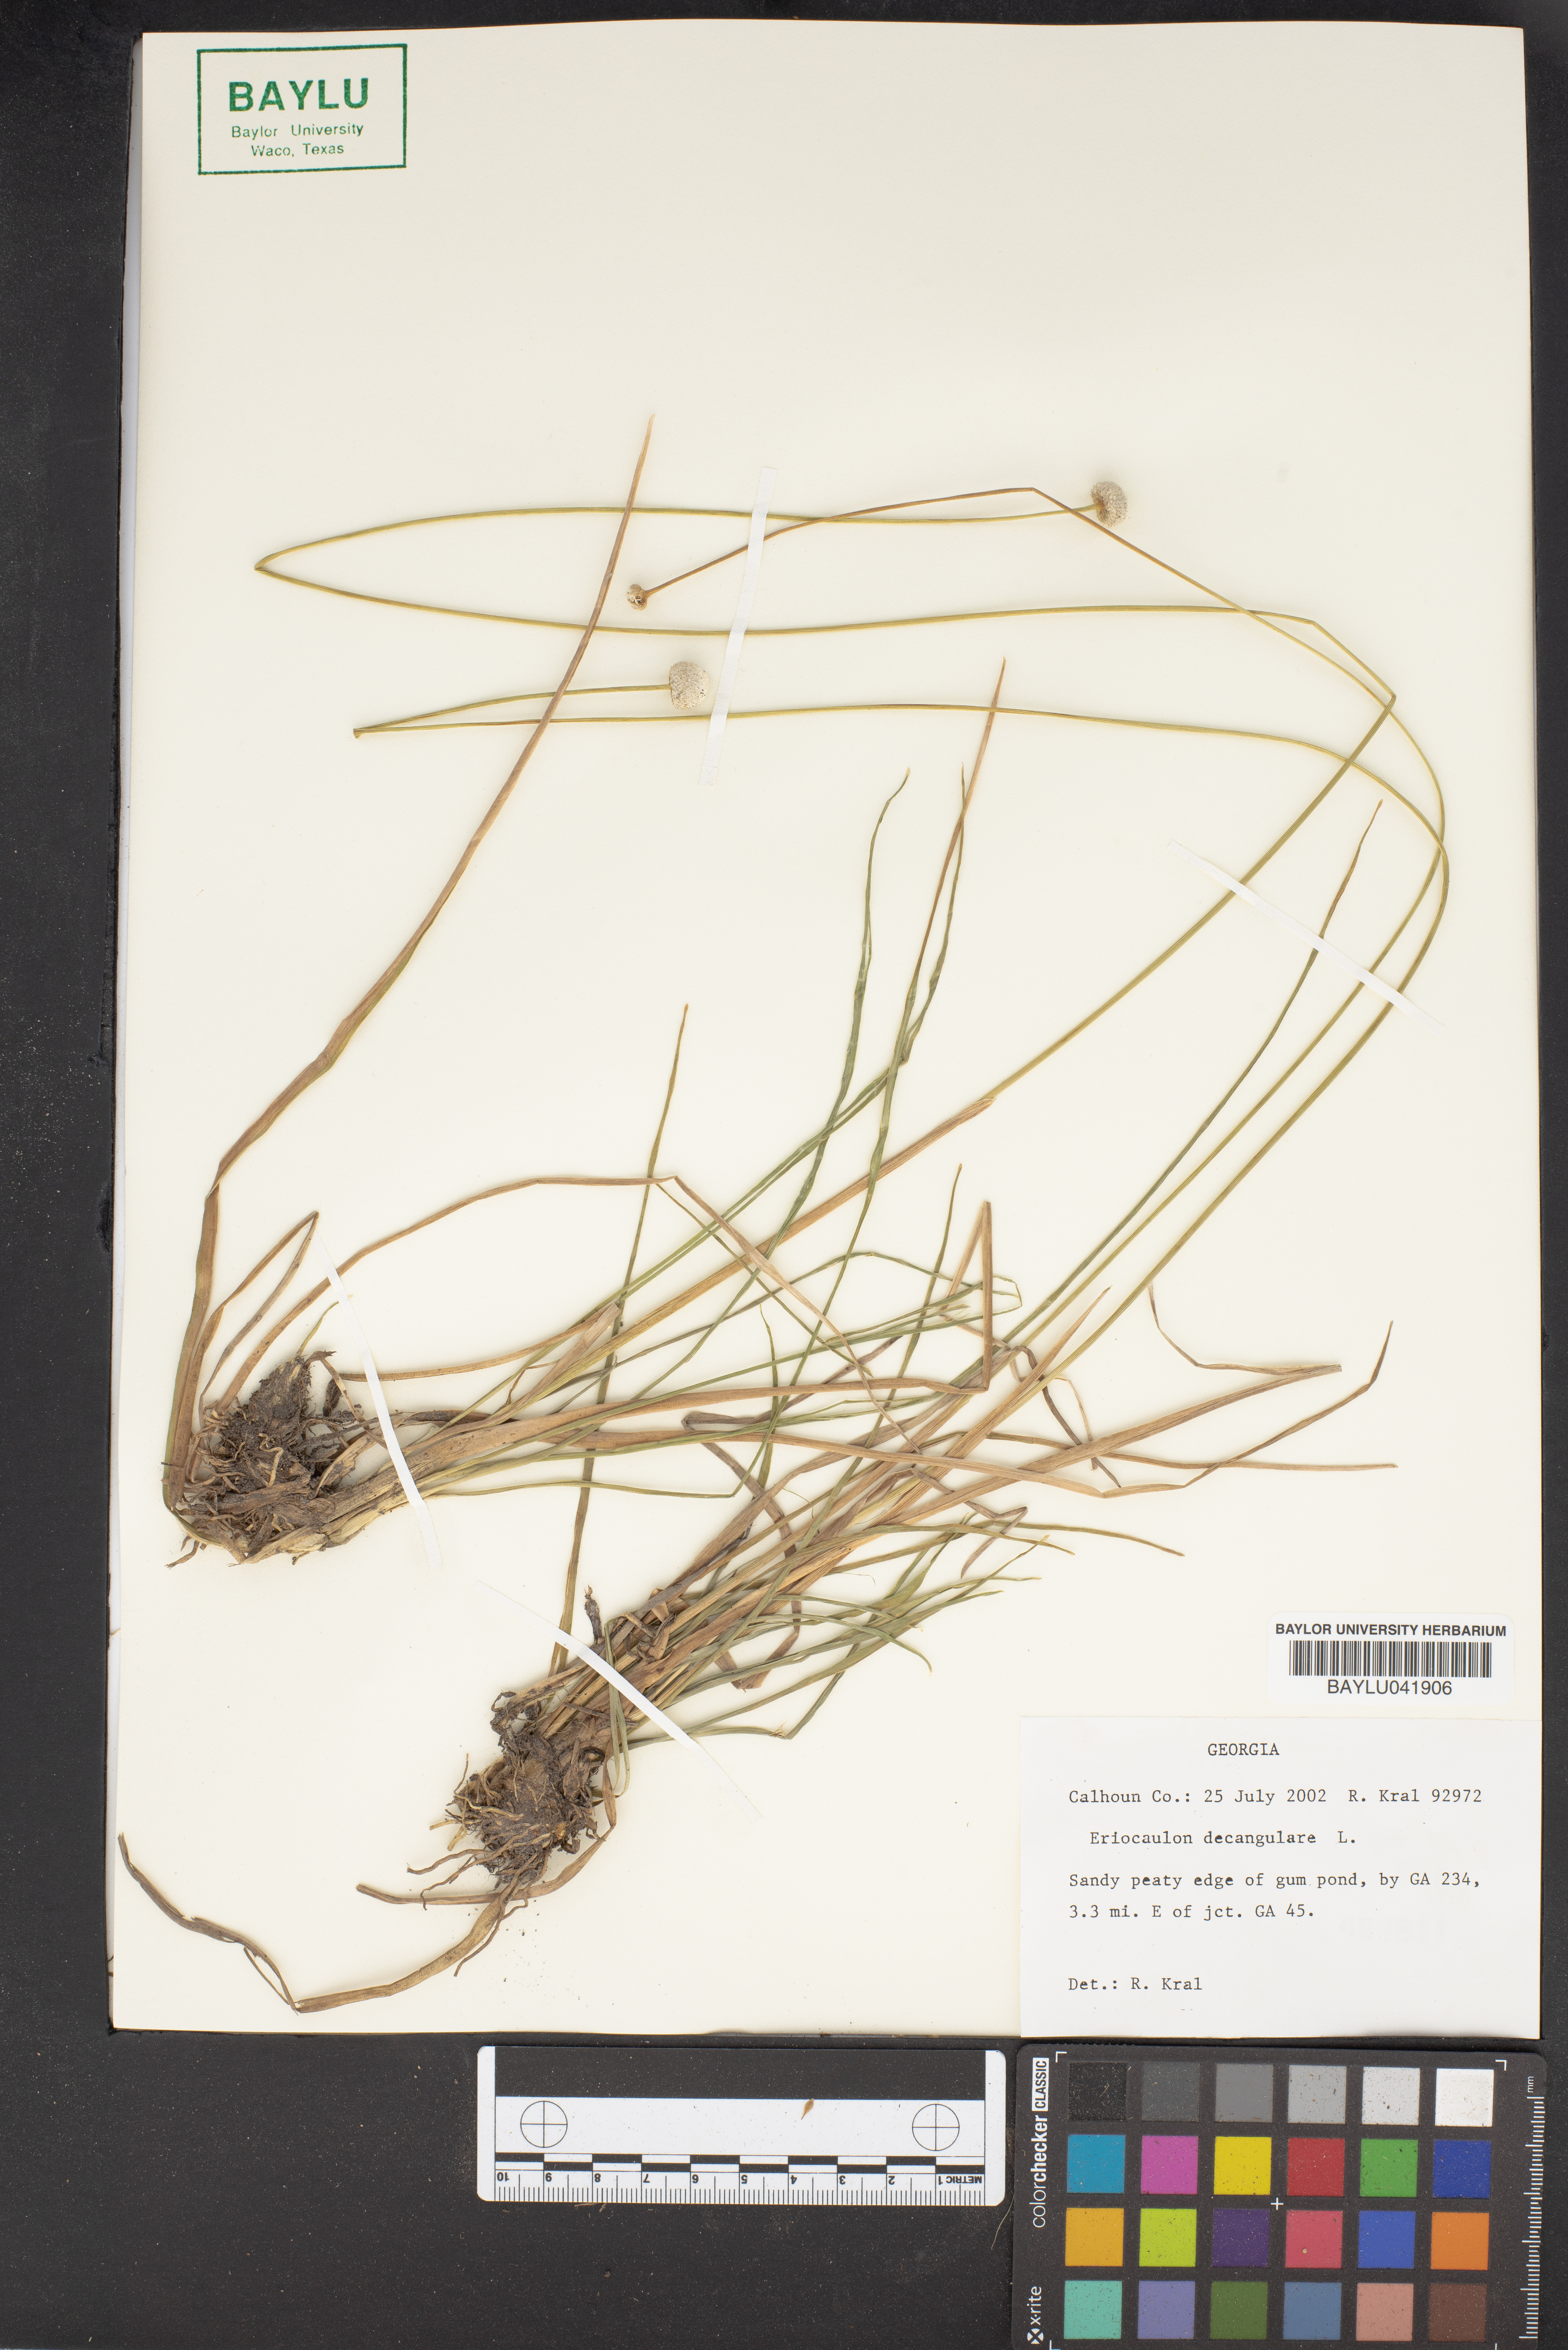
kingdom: Plantae
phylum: Tracheophyta
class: Liliopsida
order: Poales
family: Eriocaulaceae
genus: Eriocaulon
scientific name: Eriocaulon decangulare
